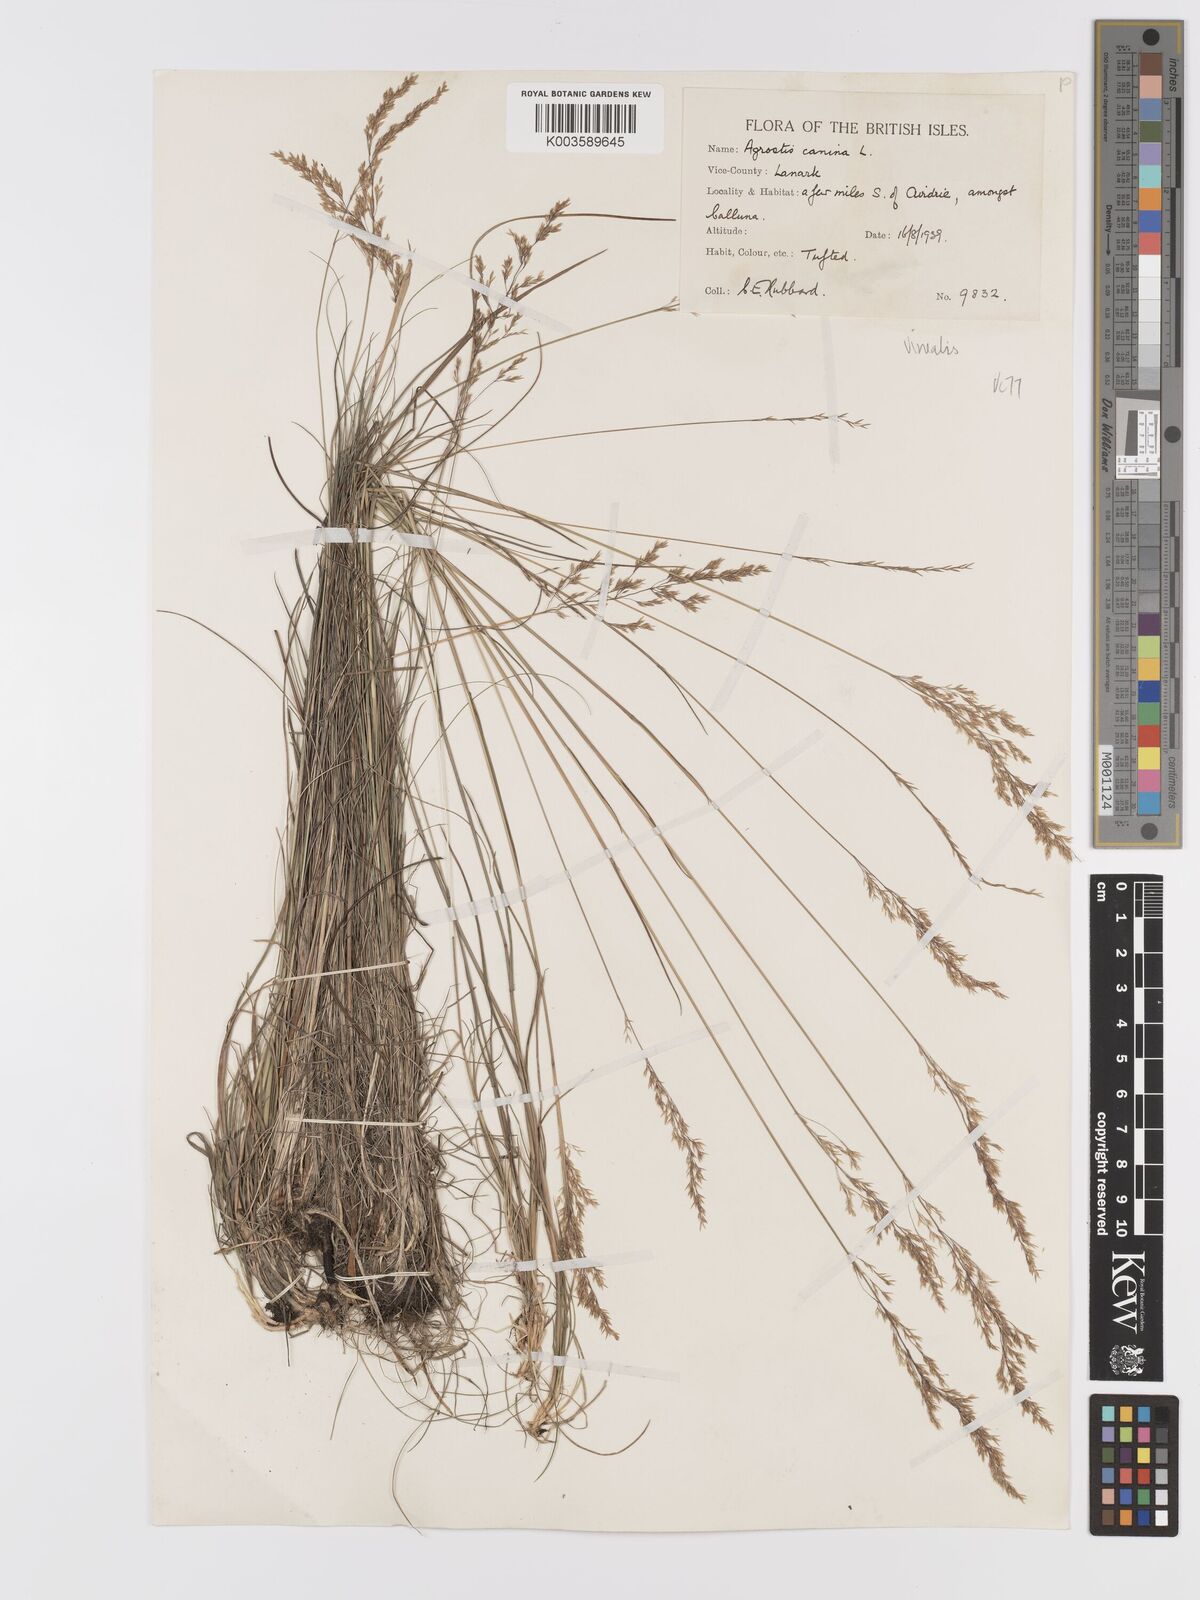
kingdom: Plantae
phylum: Tracheophyta
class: Liliopsida
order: Poales
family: Poaceae
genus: Agrostis
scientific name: Agrostis
